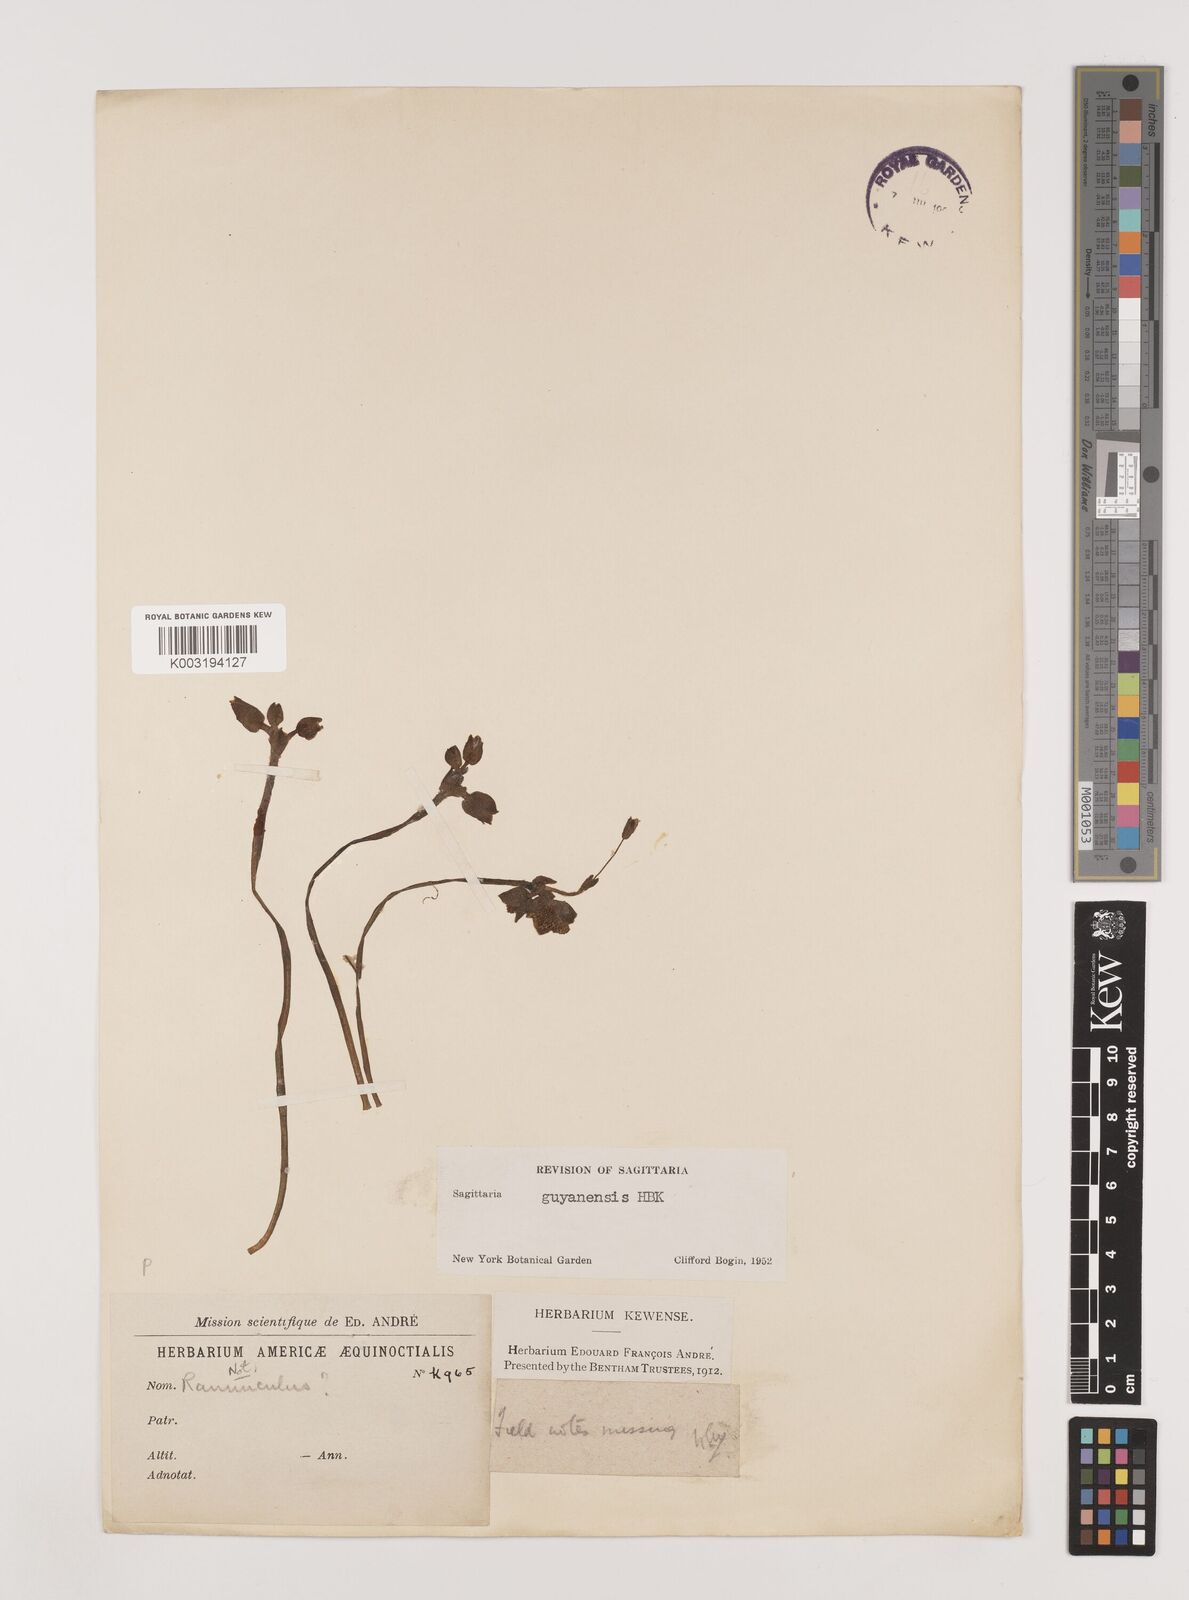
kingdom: Plantae
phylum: Tracheophyta
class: Liliopsida
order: Alismatales
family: Alismataceae
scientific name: Alismataceae
